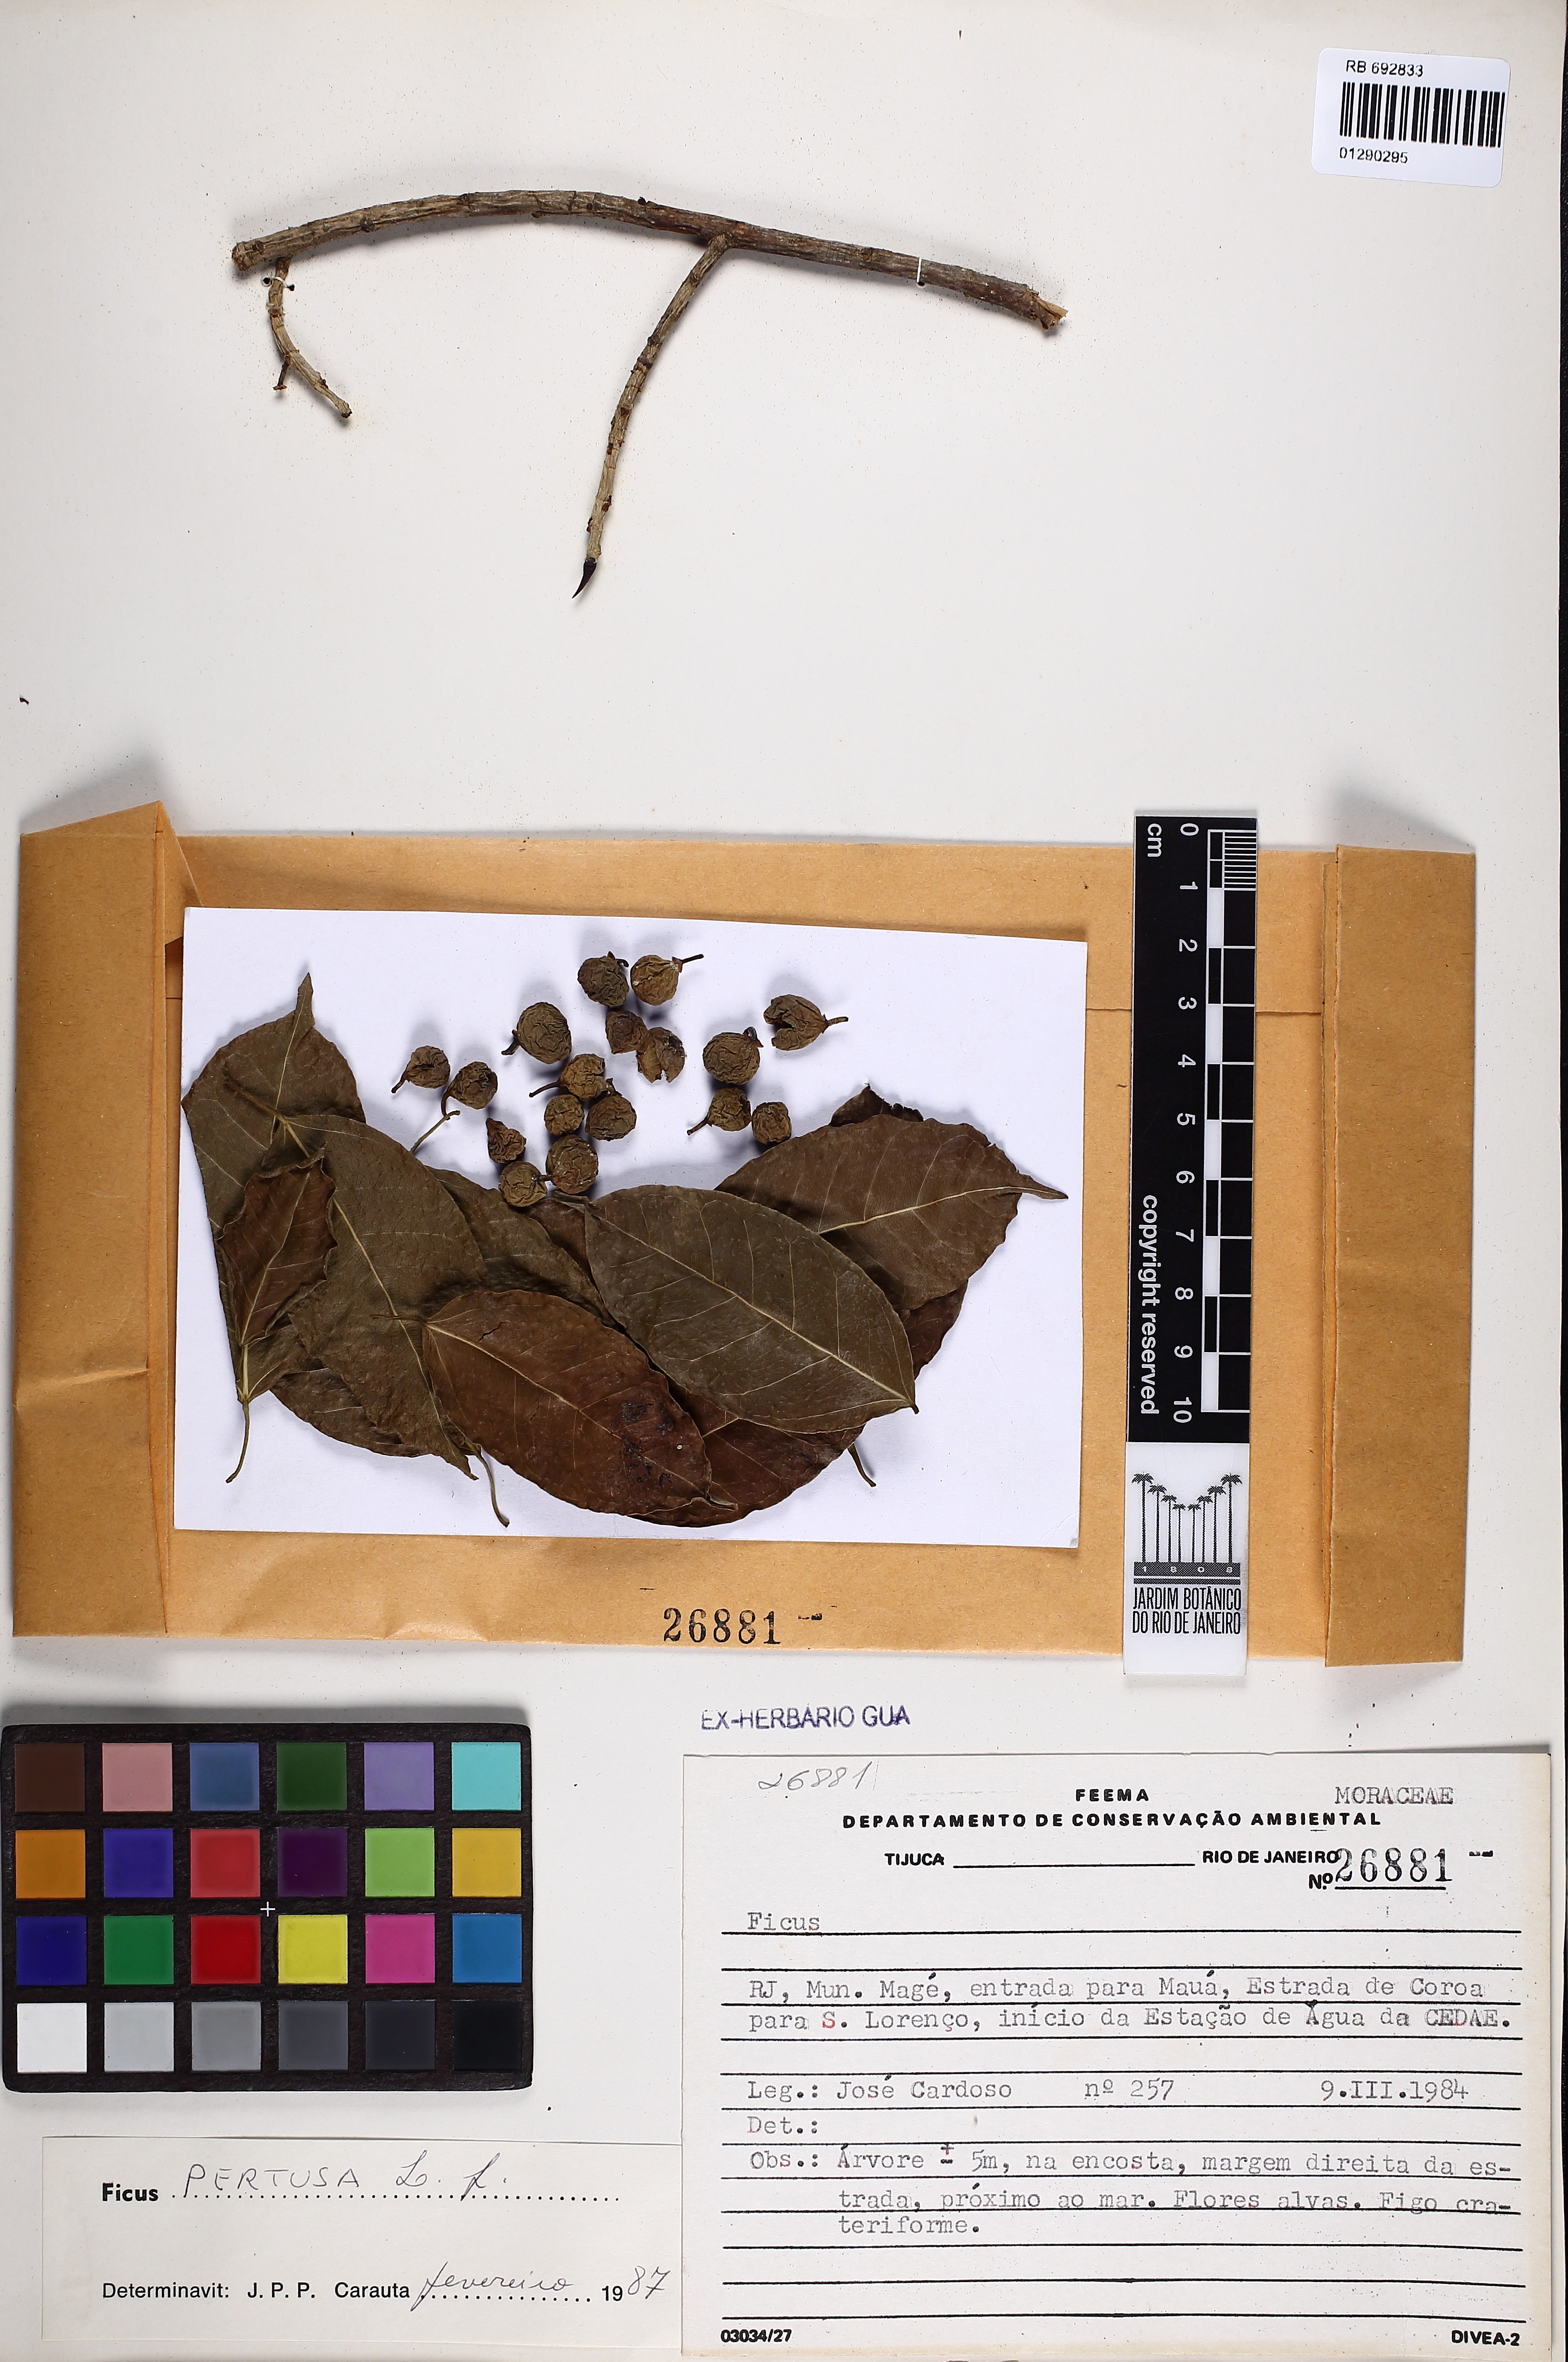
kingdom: Plantae
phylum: Tracheophyta
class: Magnoliopsida
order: Rosales
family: Moraceae
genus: Ficus
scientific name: Ficus pertusa
